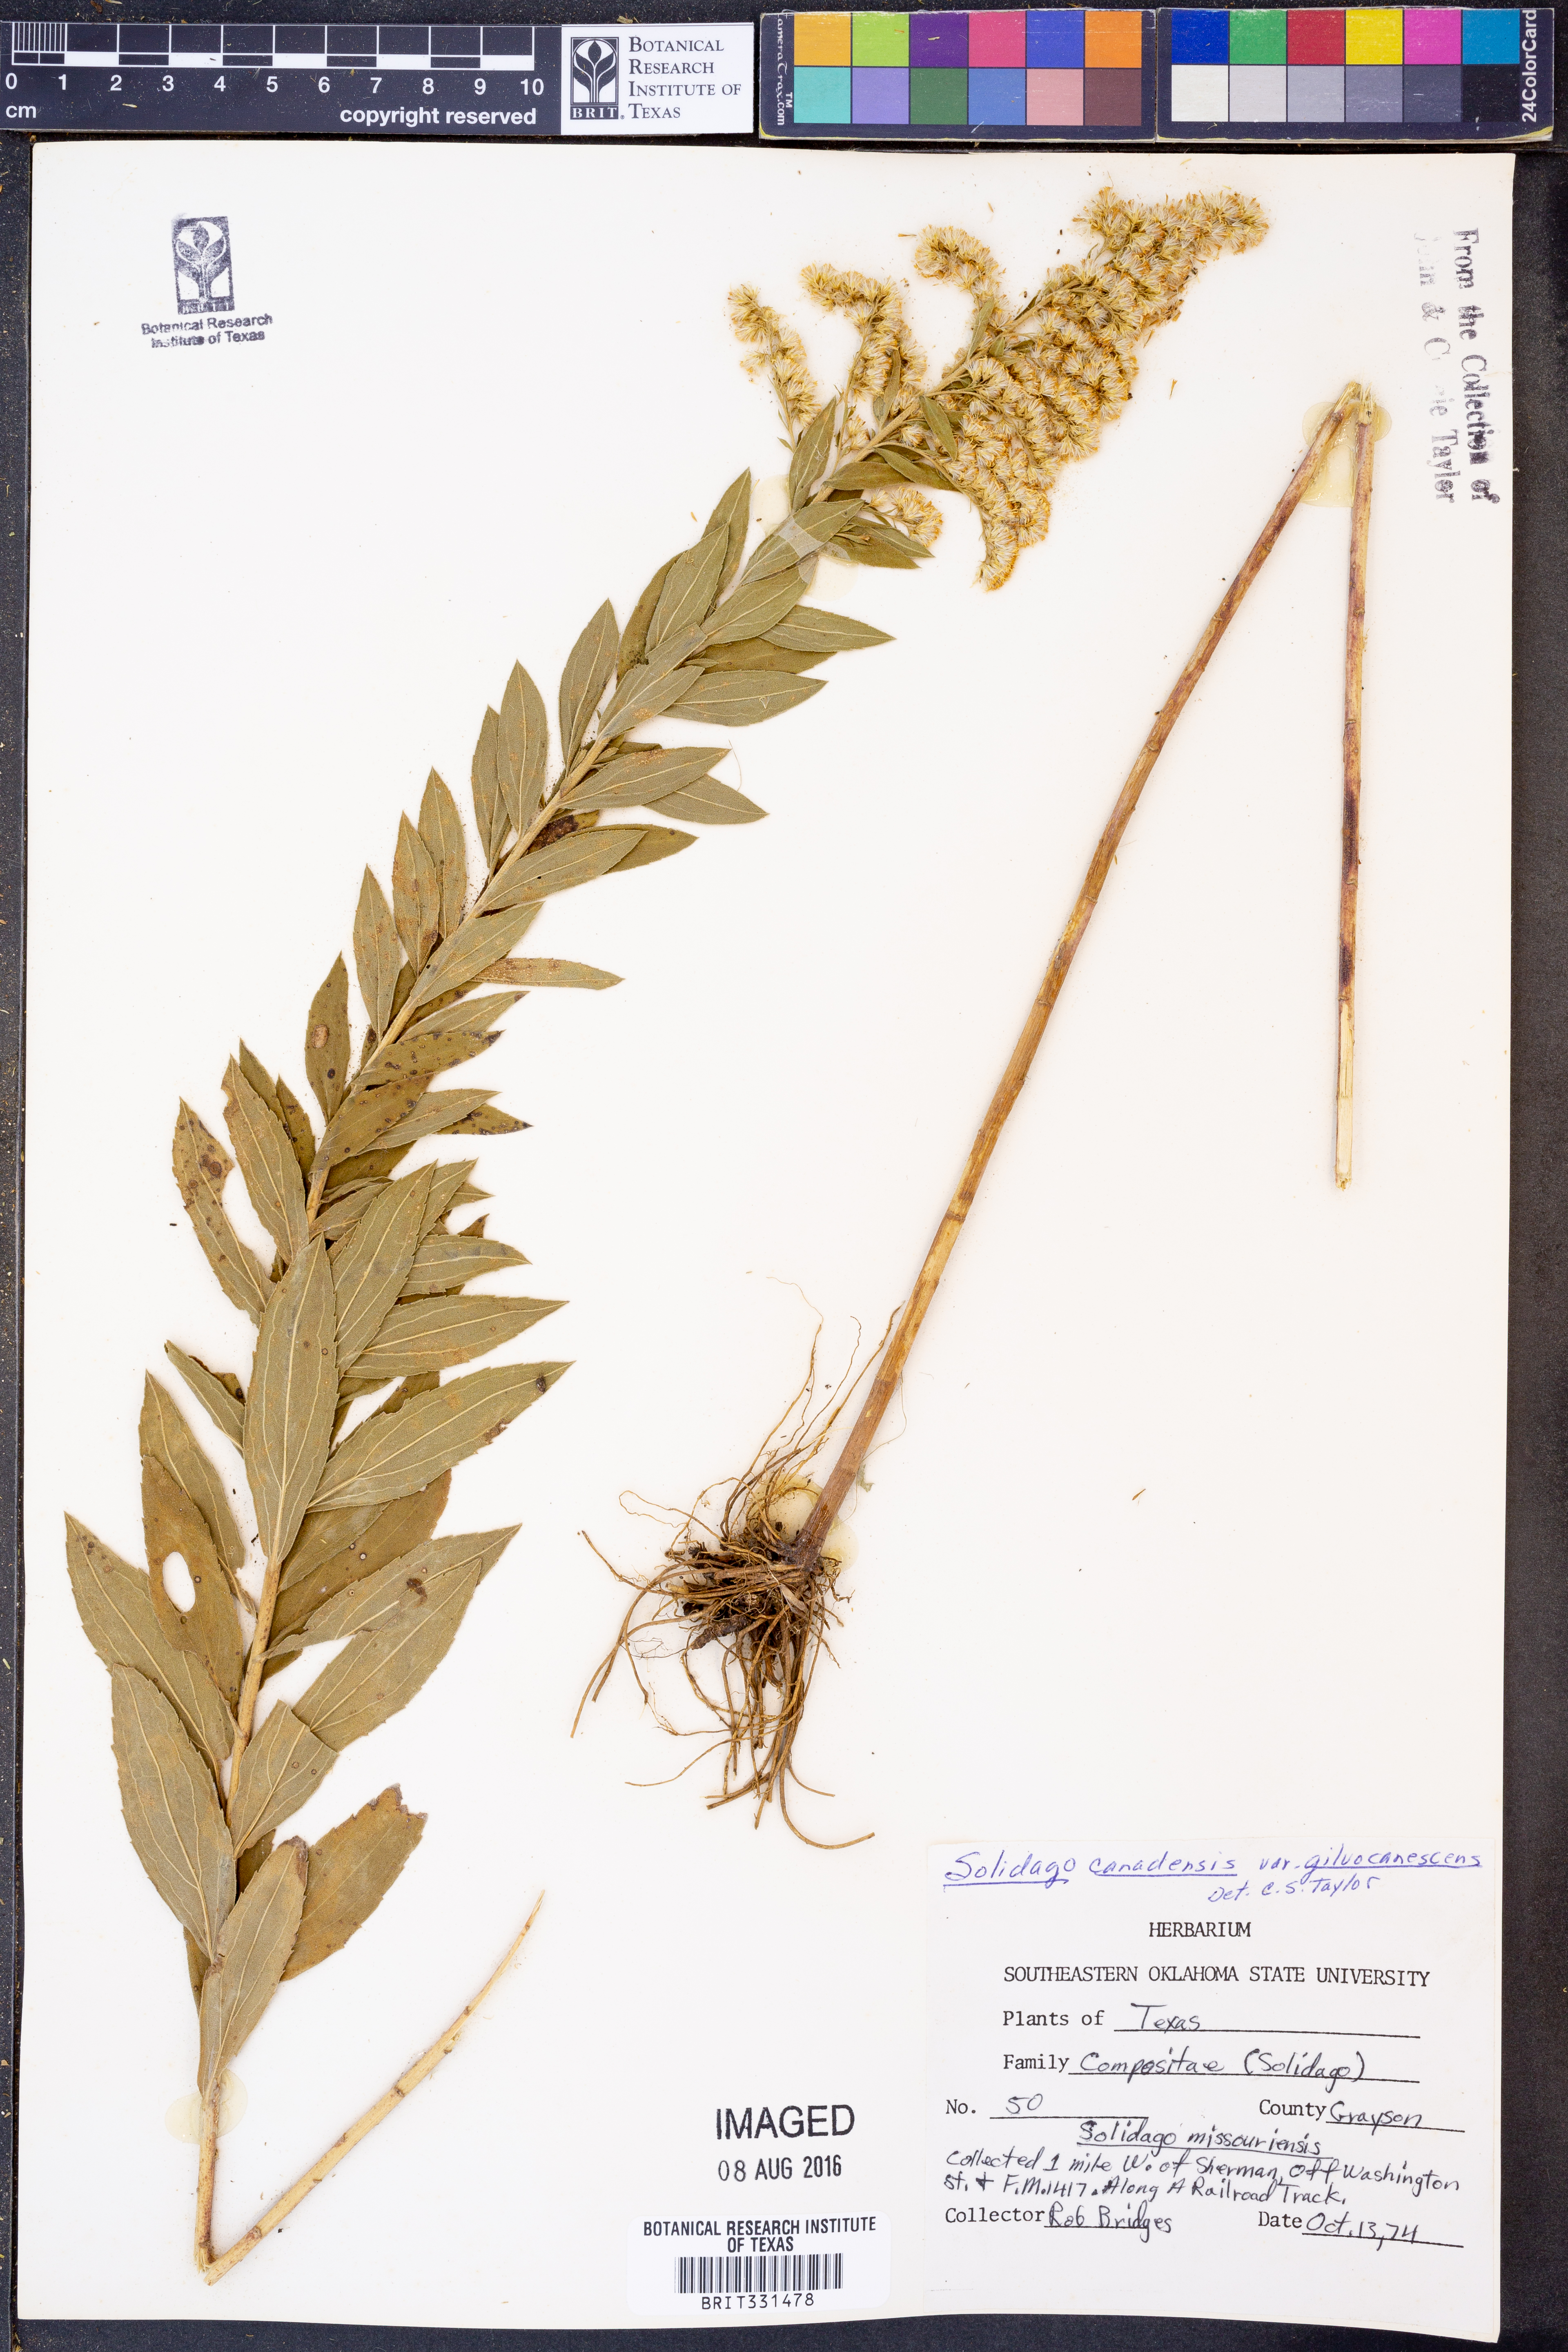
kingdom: Plantae
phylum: Tracheophyta
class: Magnoliopsida
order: Asterales
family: Asteraceae
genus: Solidago
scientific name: Solidago altissima
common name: Late goldenrod
